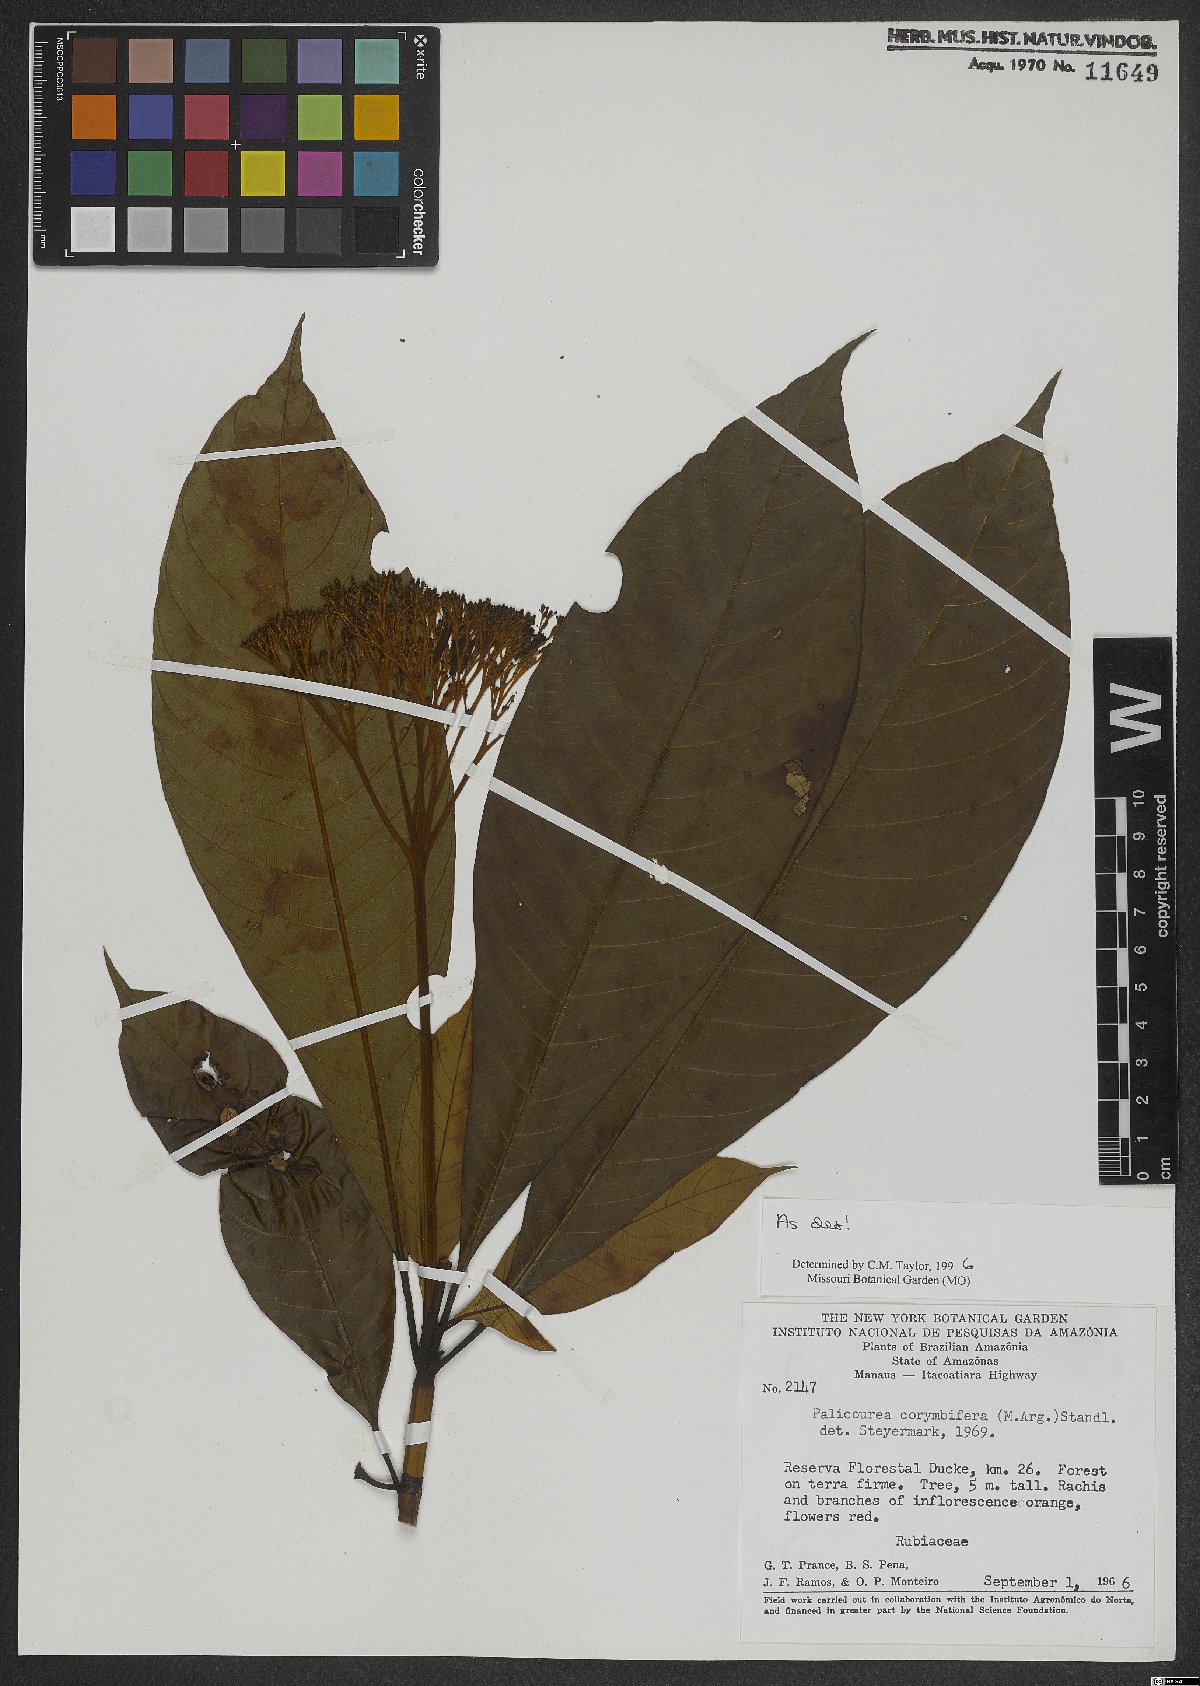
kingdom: Plantae
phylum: Tracheophyta
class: Magnoliopsida
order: Gentianales
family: Rubiaceae
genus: Palicourea
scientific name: Palicourea corymbifera
